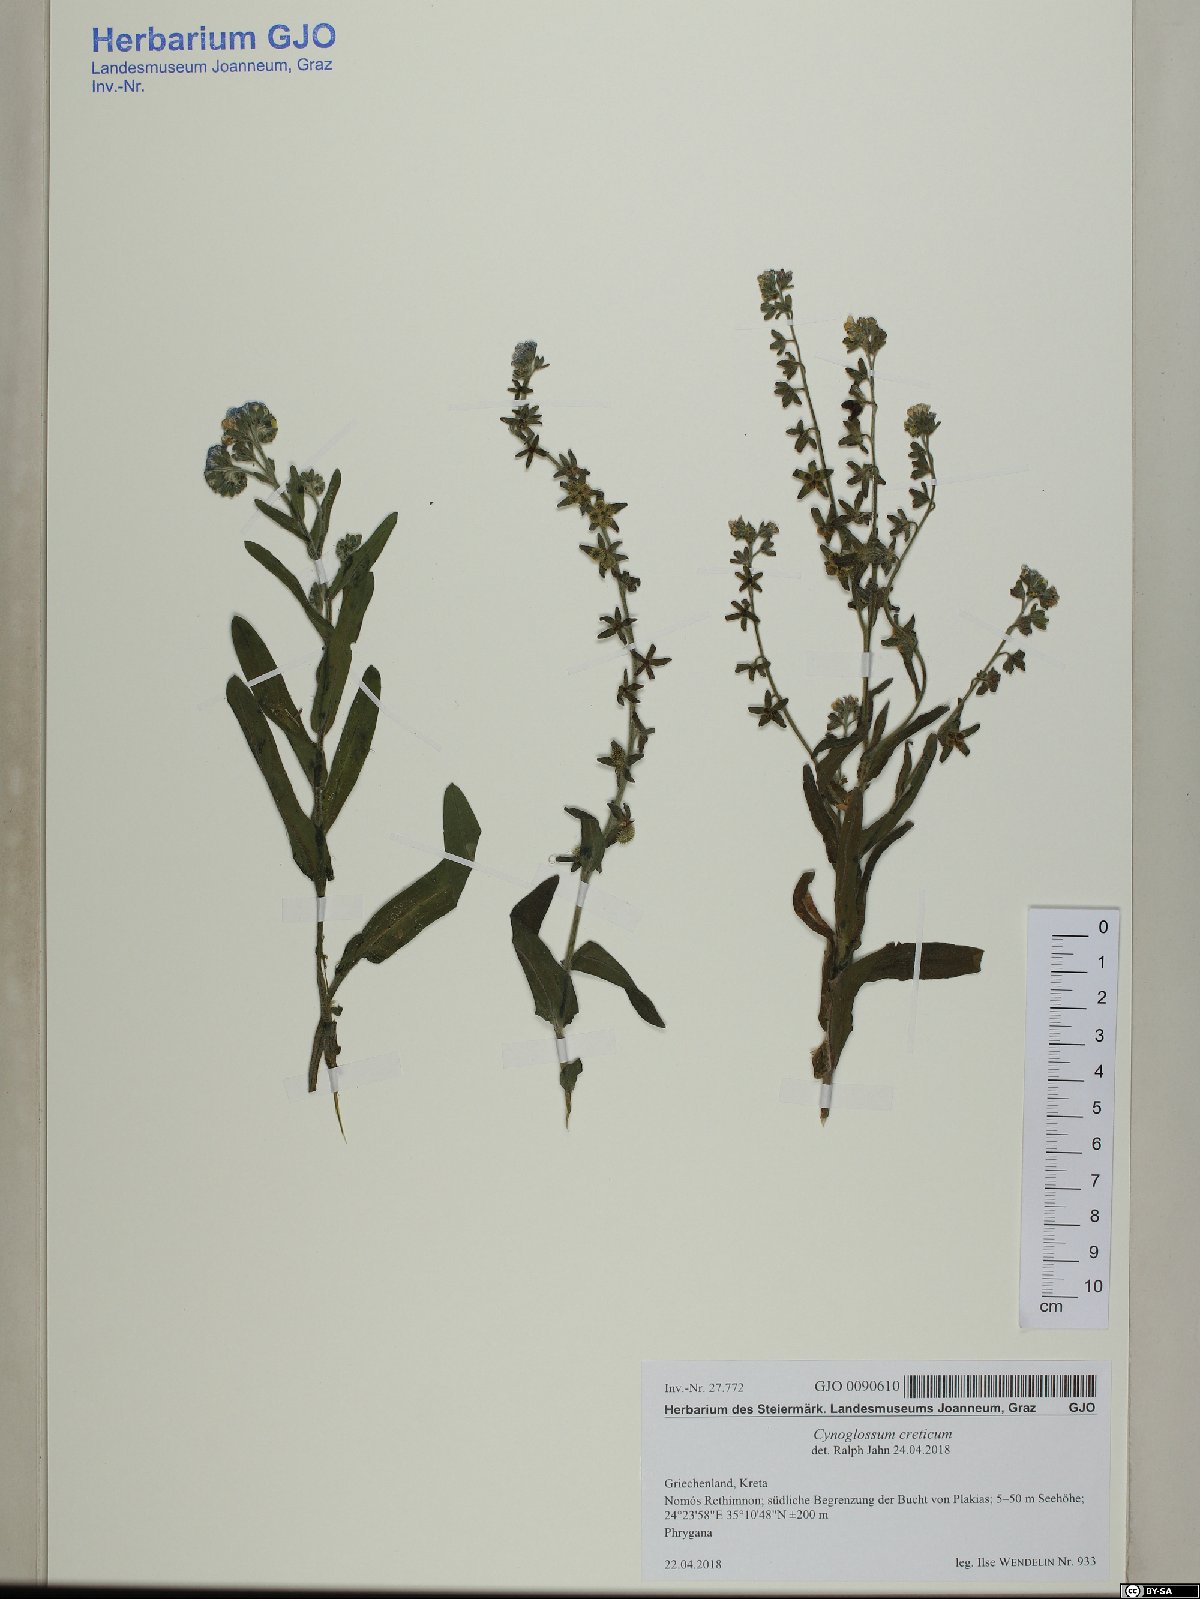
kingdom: Plantae
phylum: Tracheophyta
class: Magnoliopsida
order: Boraginales
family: Boraginaceae
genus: Cynoglossum
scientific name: Cynoglossum creticum
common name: Blue hound's tongue
